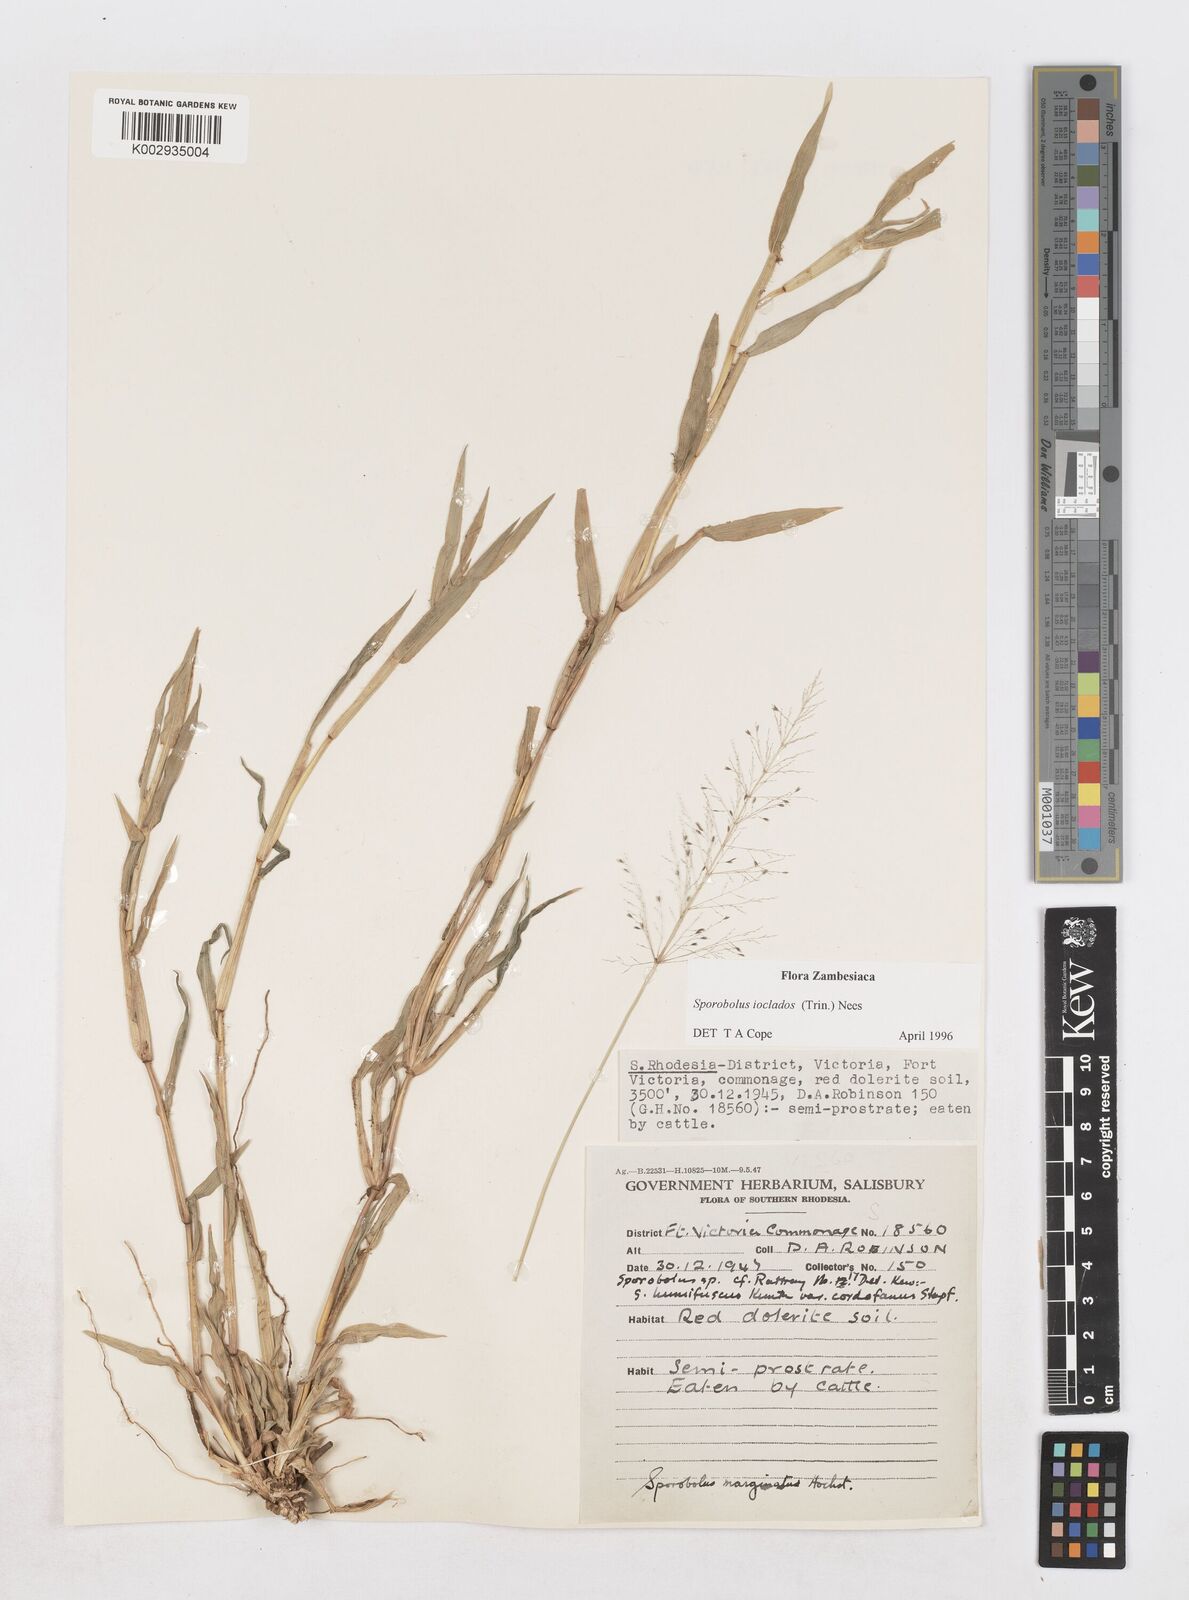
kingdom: Plantae
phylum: Tracheophyta
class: Liliopsida
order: Poales
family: Poaceae
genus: Sporobolus
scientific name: Sporobolus ioclados
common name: Pan dropseed
